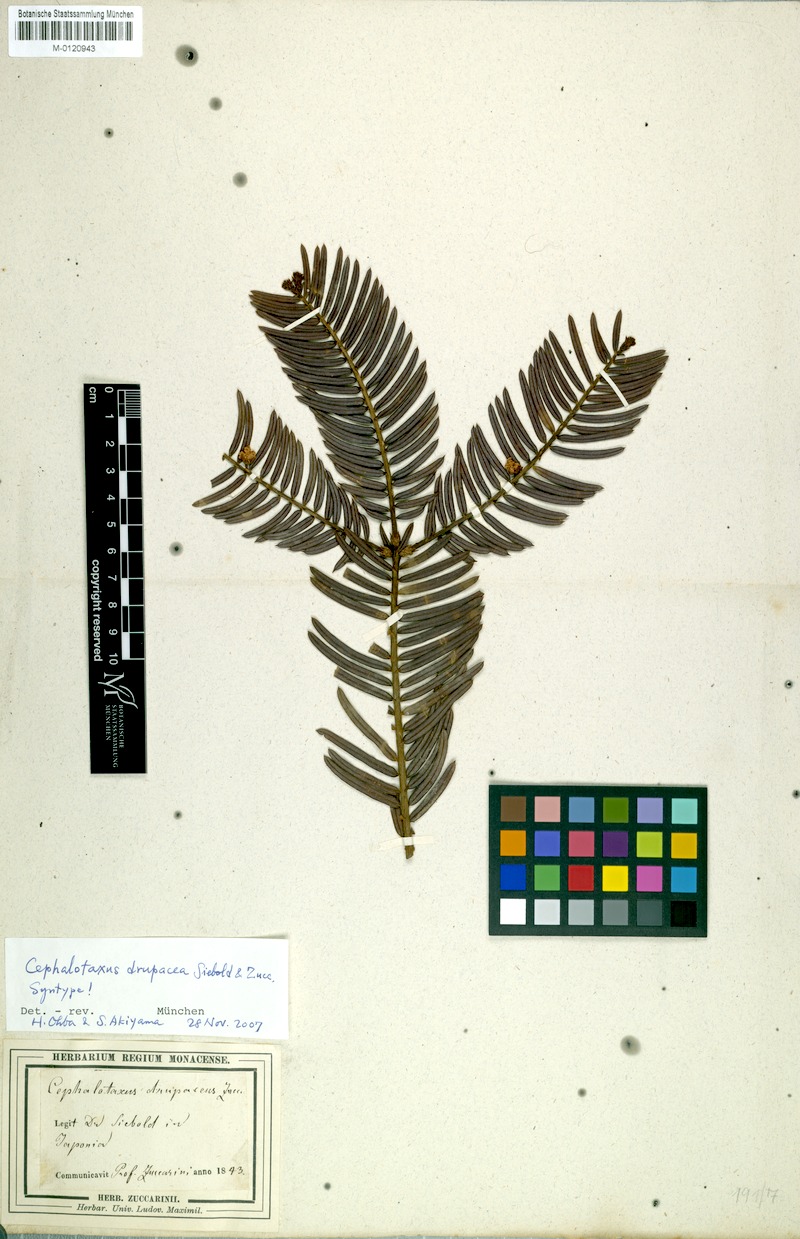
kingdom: Plantae
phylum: Tracheophyta
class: Pinopsida
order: Pinales
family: Cephalotaxaceae
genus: Cephalotaxus
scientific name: Cephalotaxus harringtonii
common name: Harrington's plum yew
